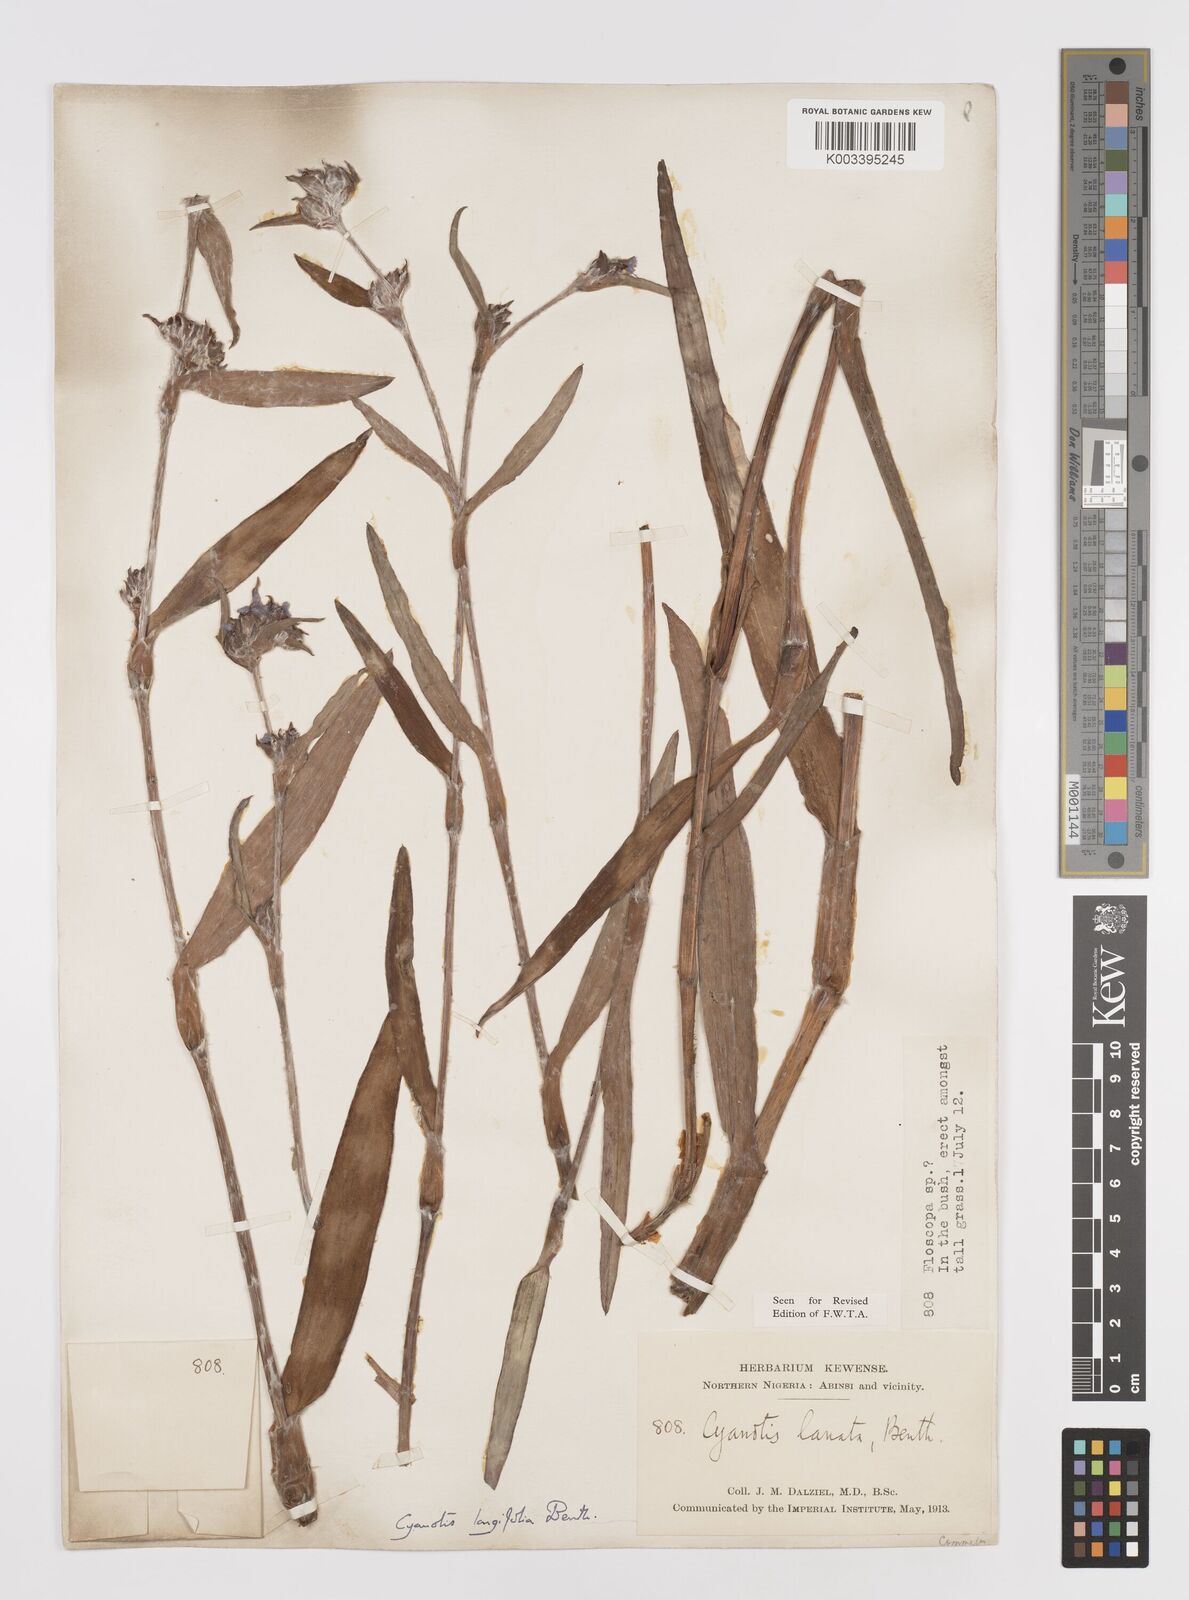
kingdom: Plantae
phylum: Tracheophyta
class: Liliopsida
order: Commelinales
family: Commelinaceae
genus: Cyanotis
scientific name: Cyanotis
